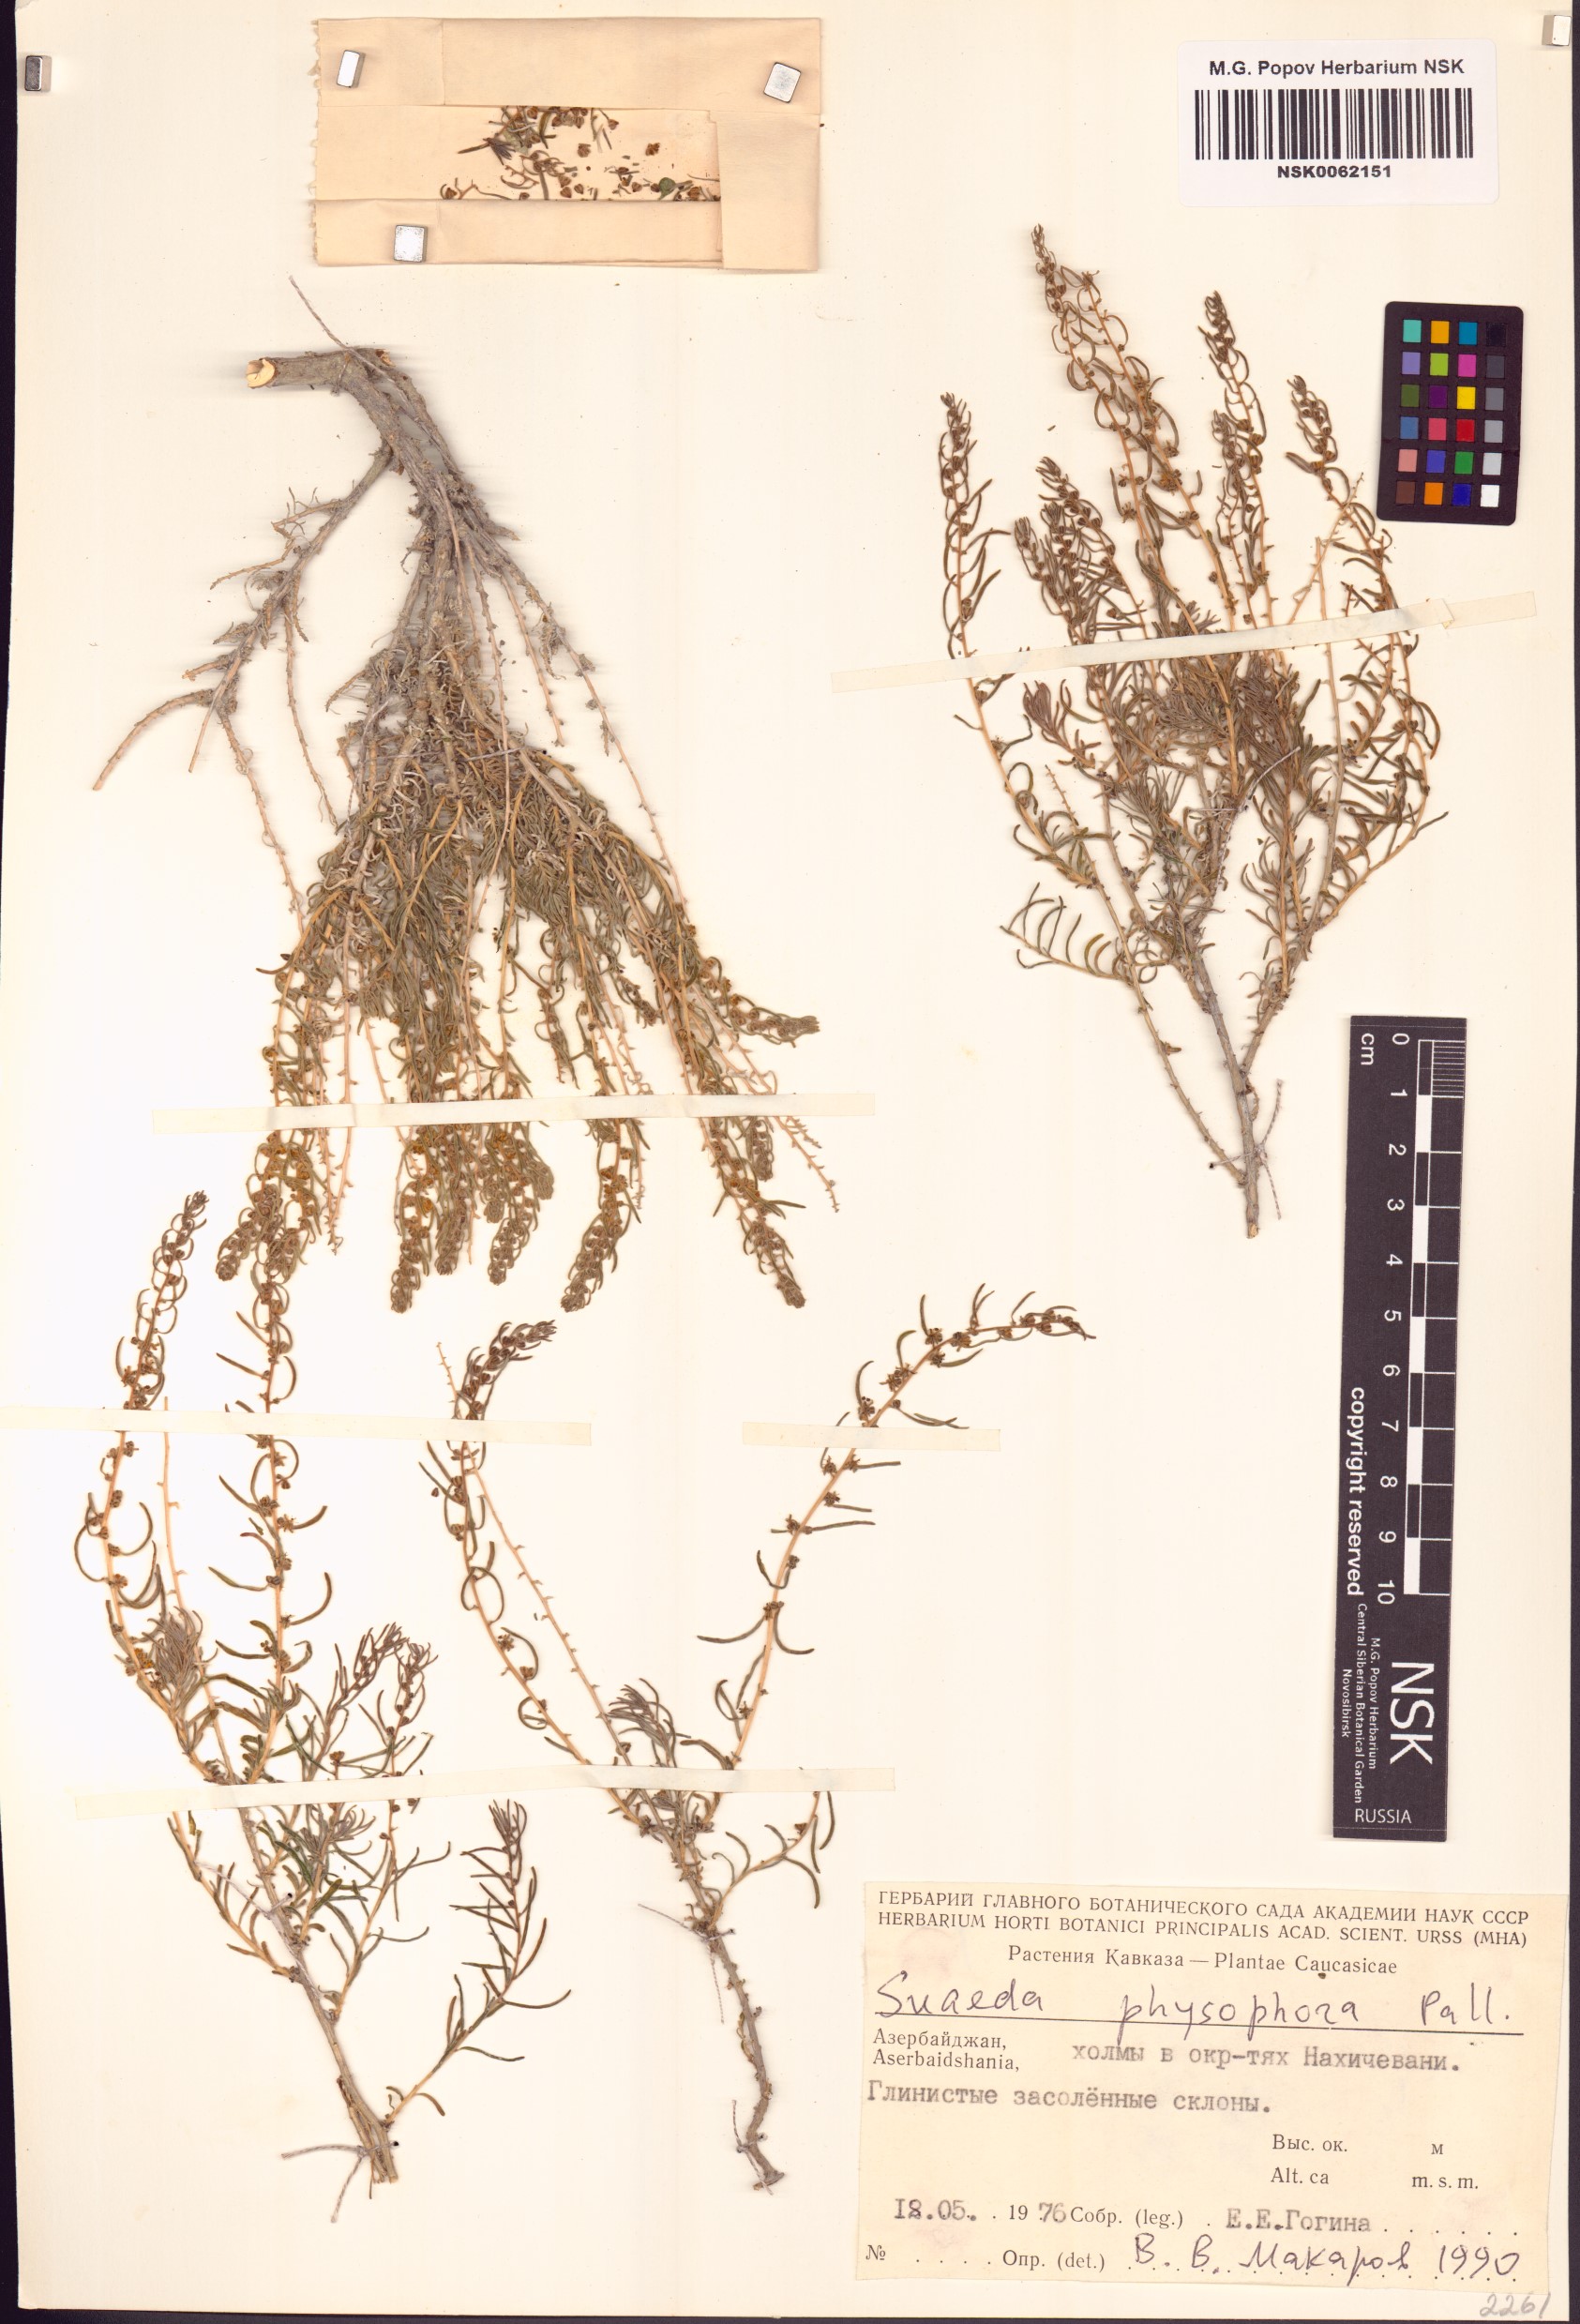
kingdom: Plantae
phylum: Tracheophyta
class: Magnoliopsida
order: Caryophyllales
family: Amaranthaceae
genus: Suaeda
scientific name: Suaeda physophora
